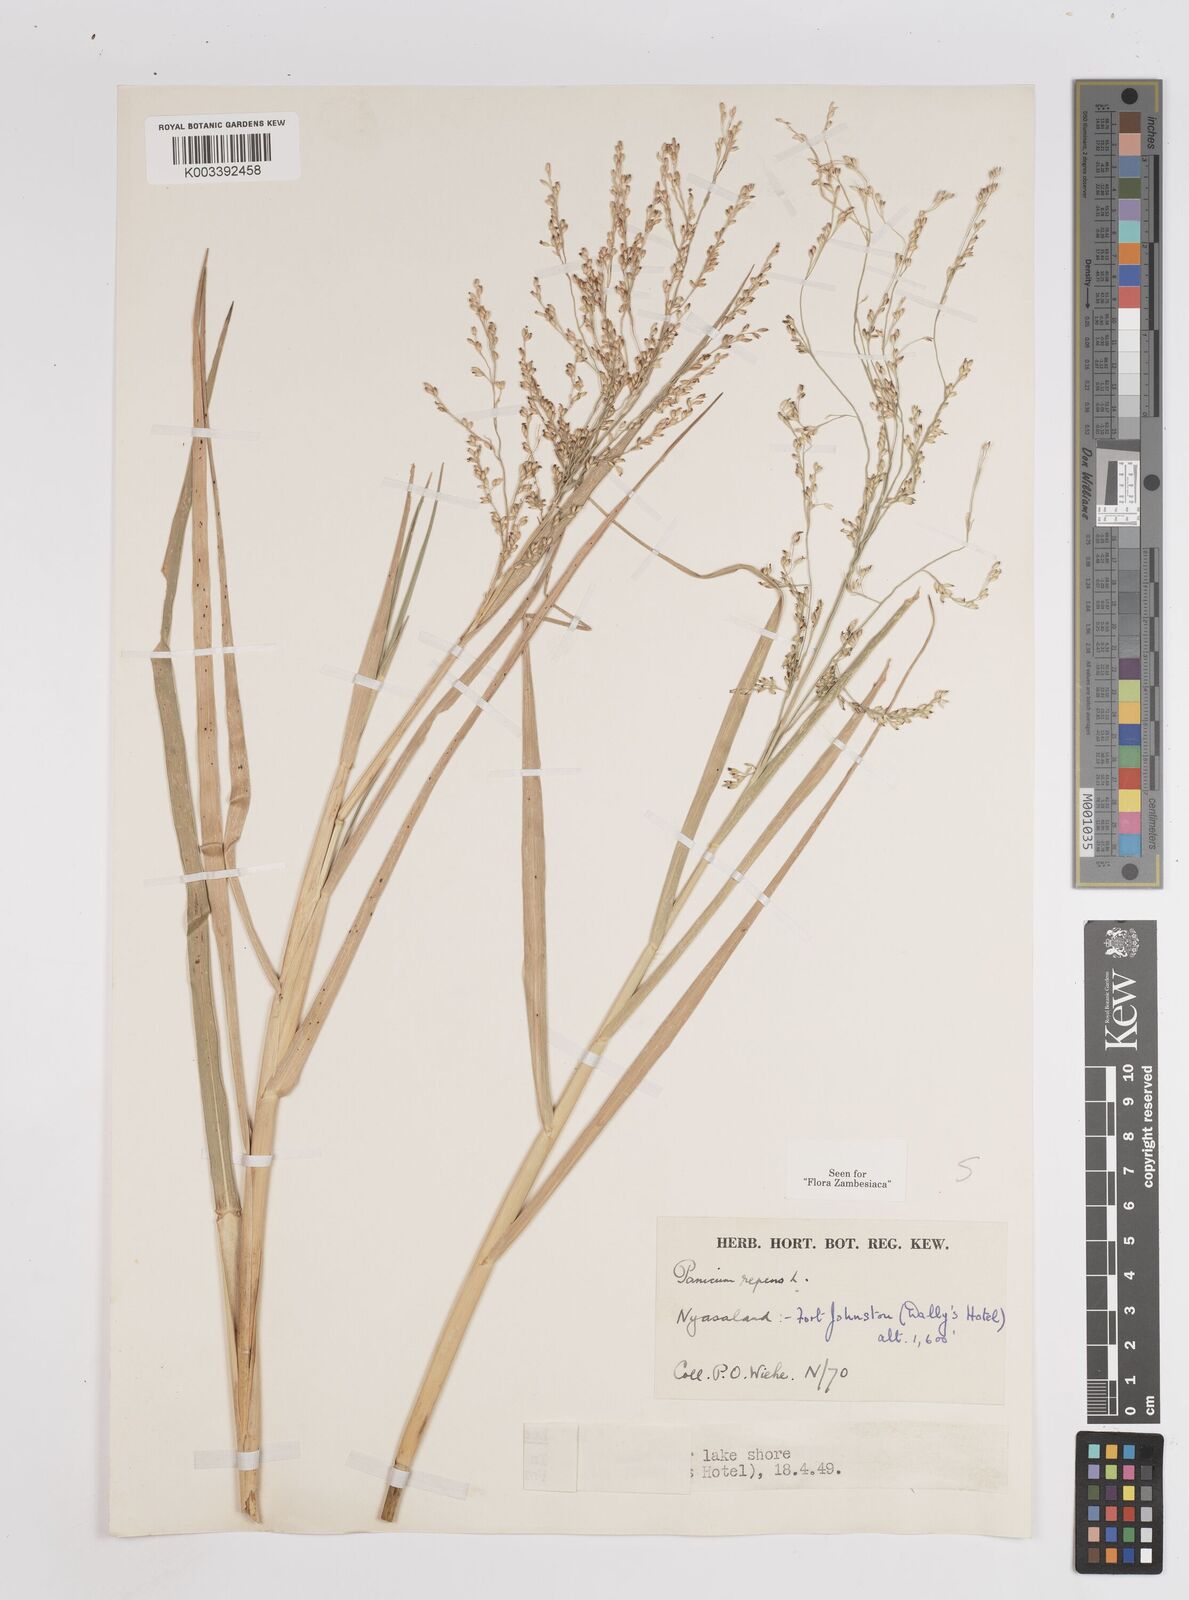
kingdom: Plantae
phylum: Tracheophyta
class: Liliopsida
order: Poales
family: Poaceae
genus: Panicum
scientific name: Panicum repens
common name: Torpedo grass
